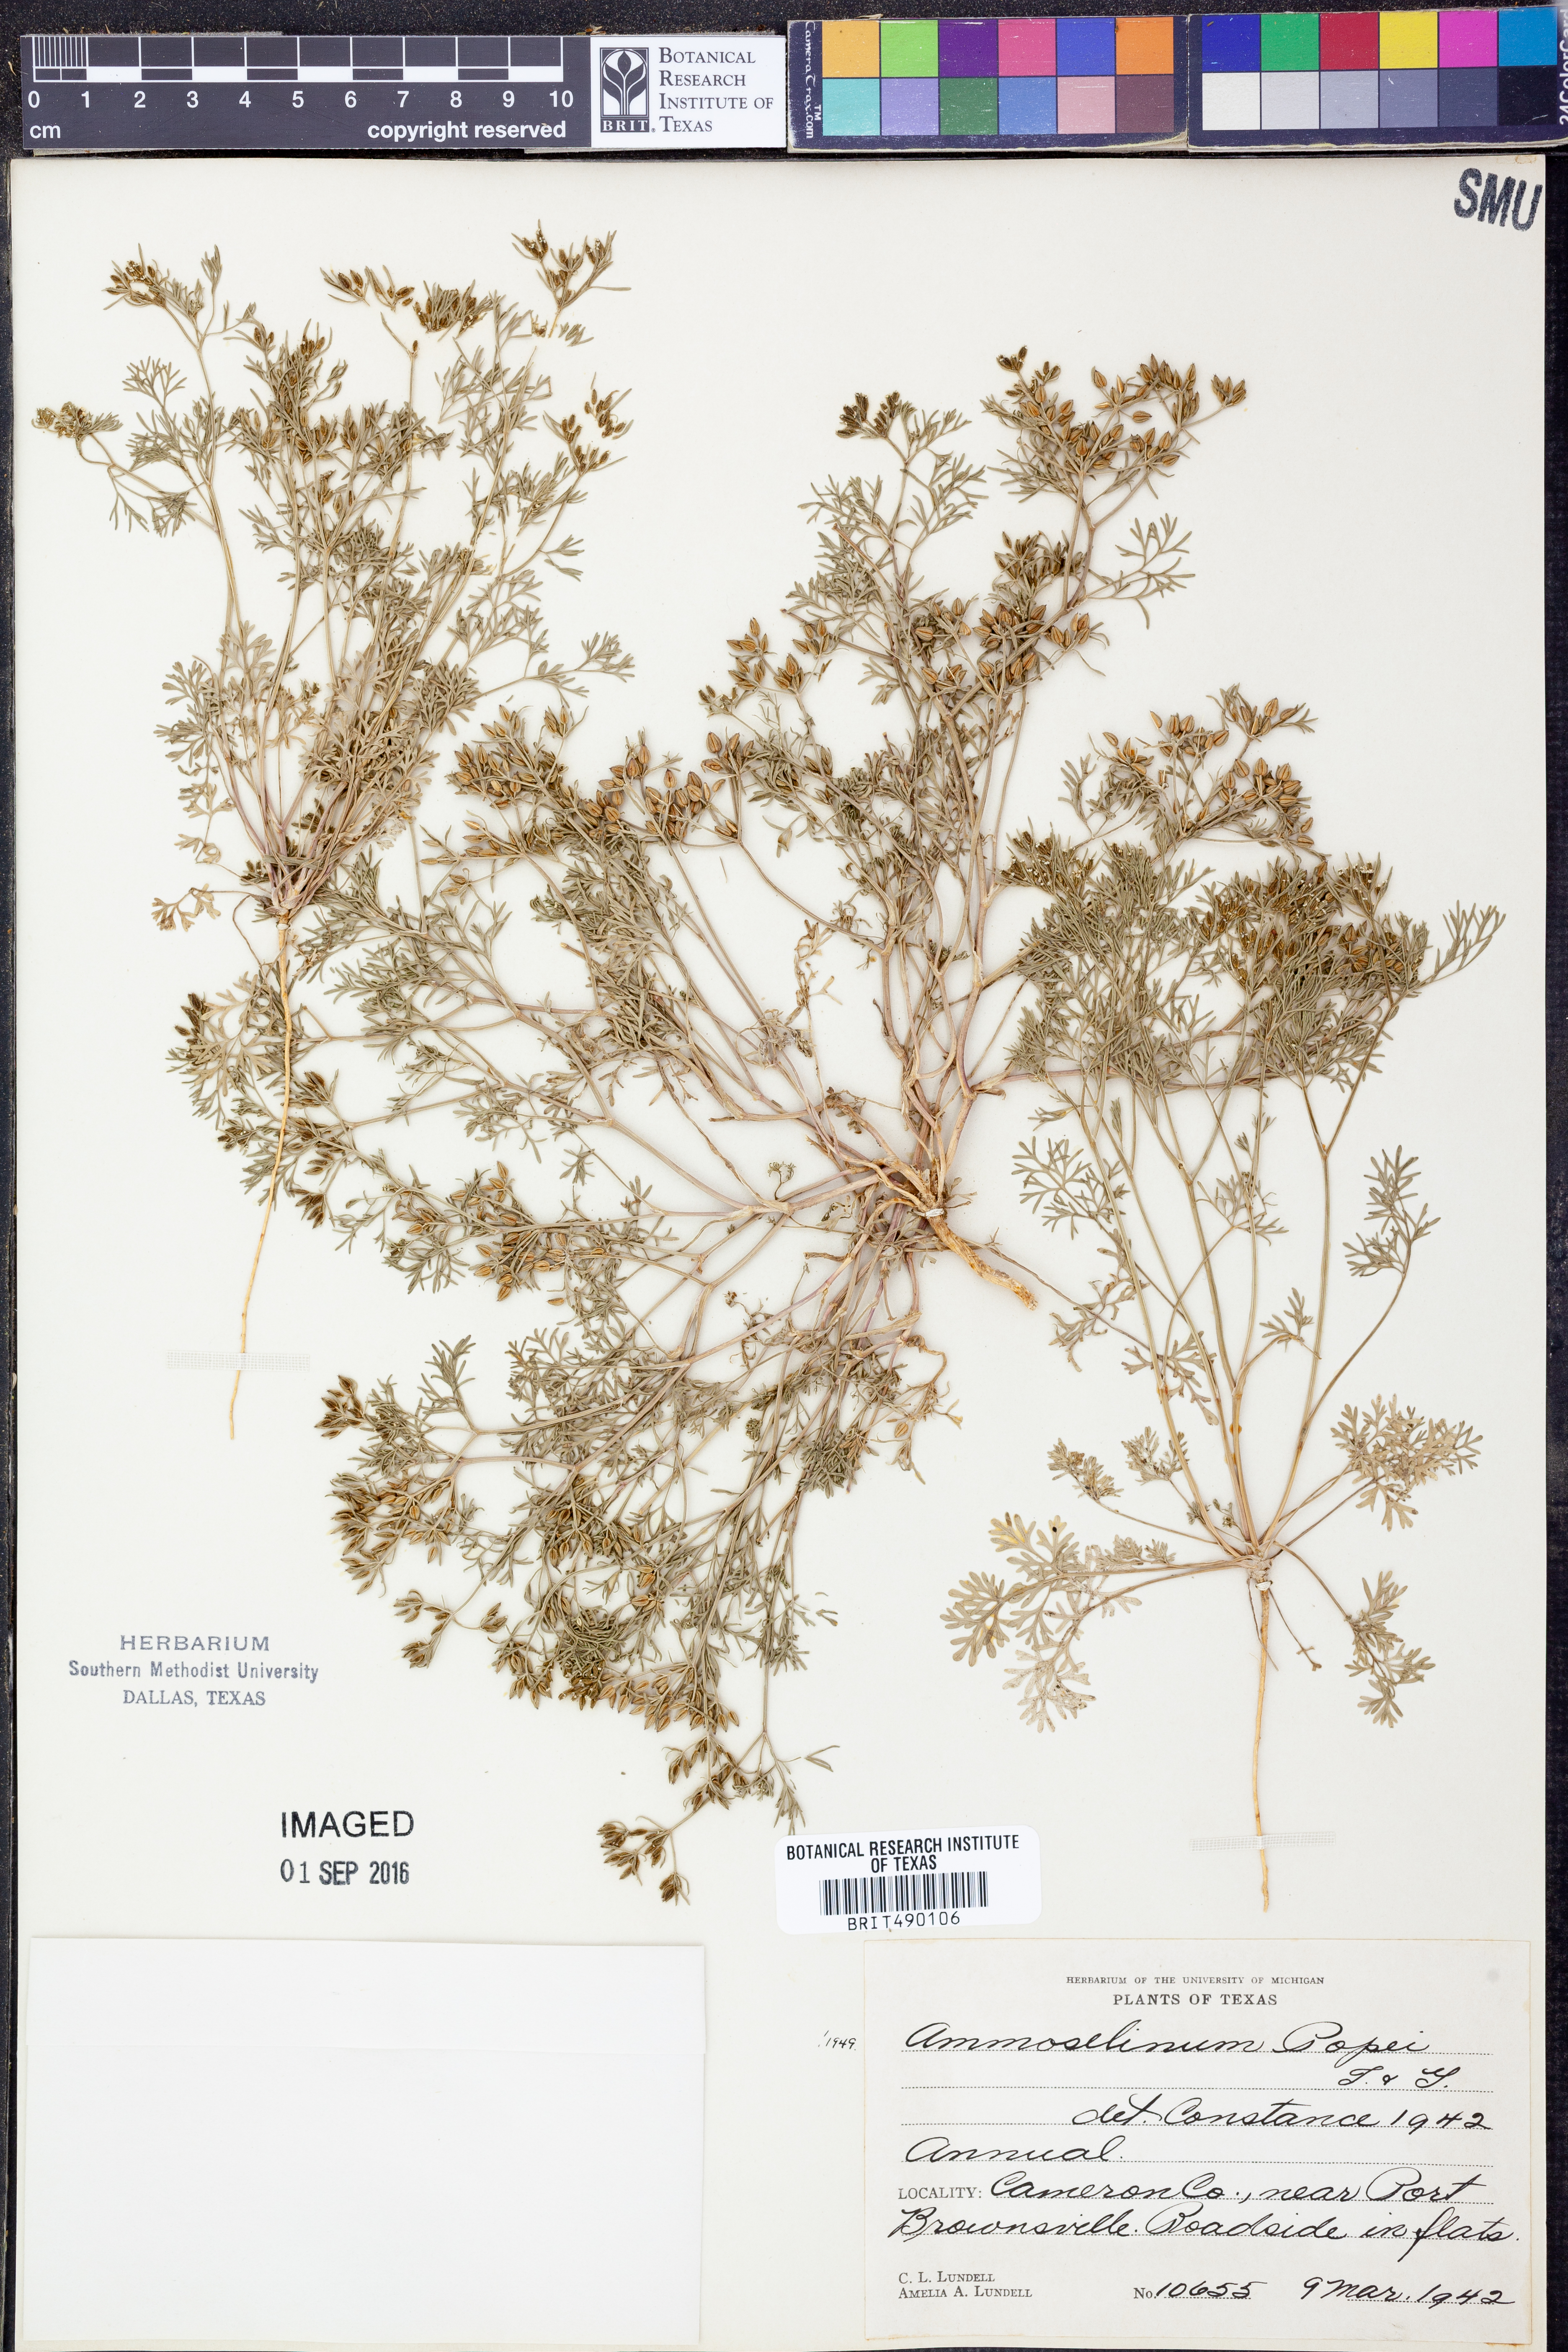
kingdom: Plantae
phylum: Tracheophyta
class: Magnoliopsida
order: Apiales
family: Apiaceae
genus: Ammoselinum
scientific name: Ammoselinum popei
